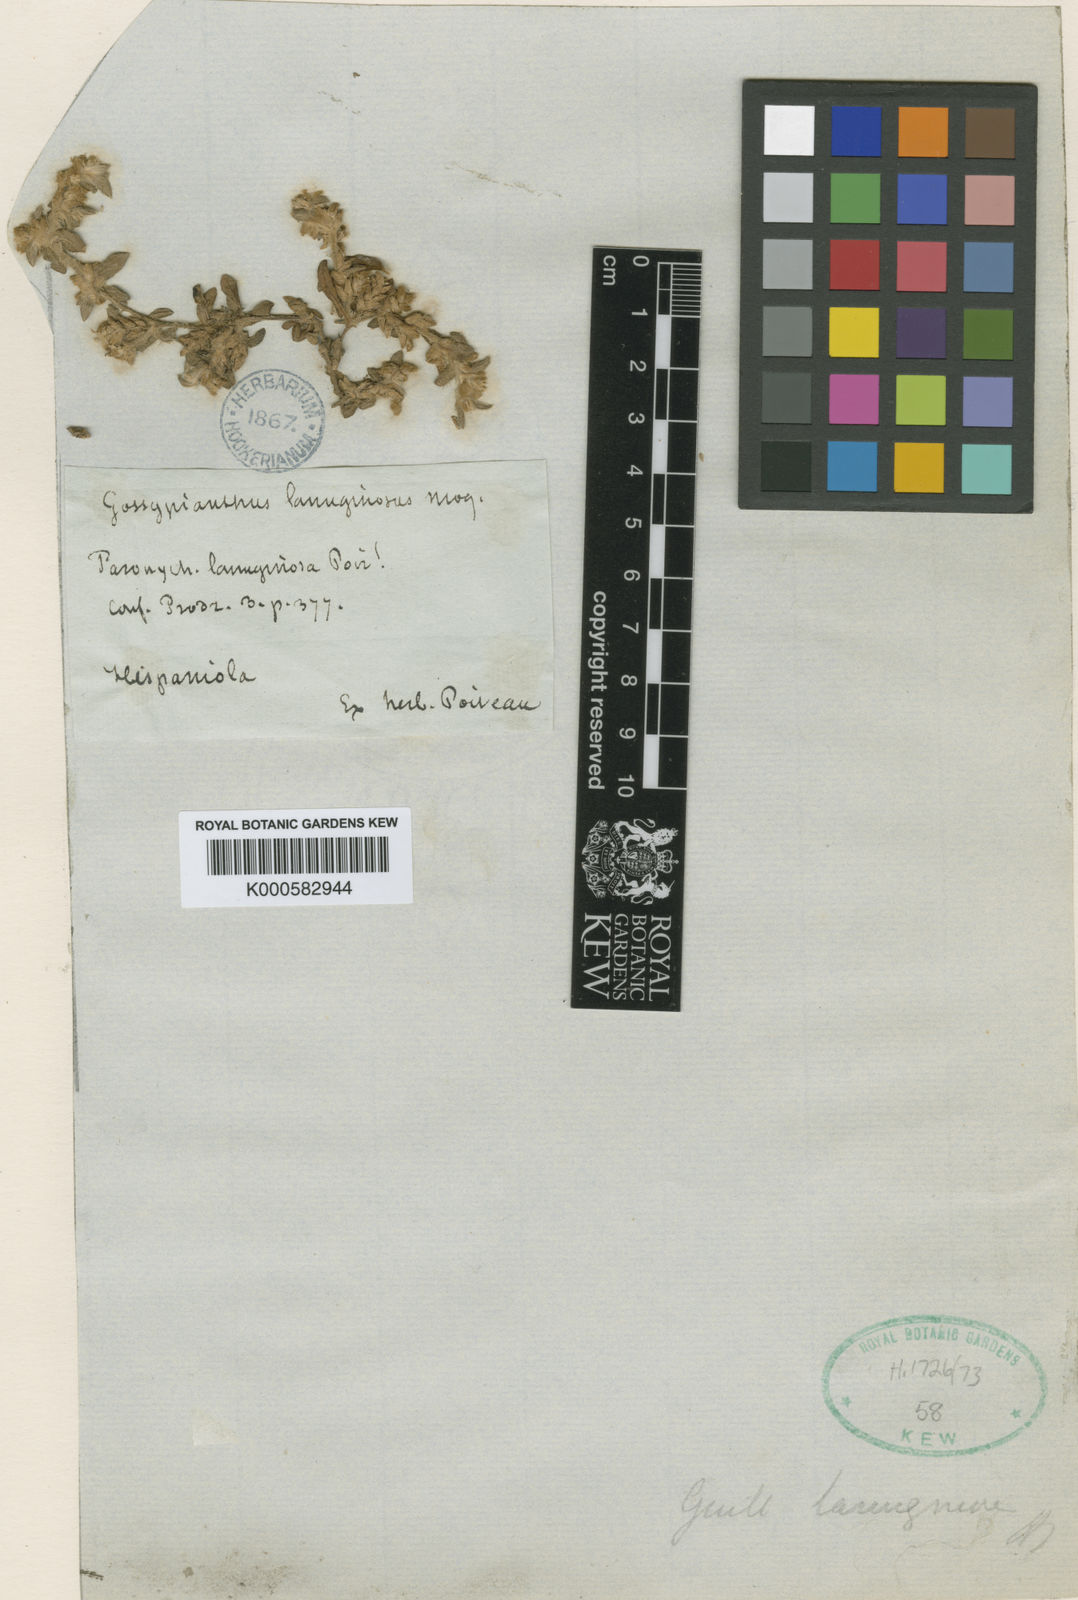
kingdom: Plantae
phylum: Tracheophyta
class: Magnoliopsida
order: Caryophyllales
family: Amaranthaceae
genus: Gomphrena
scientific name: Gomphrena lanuparonychioides
